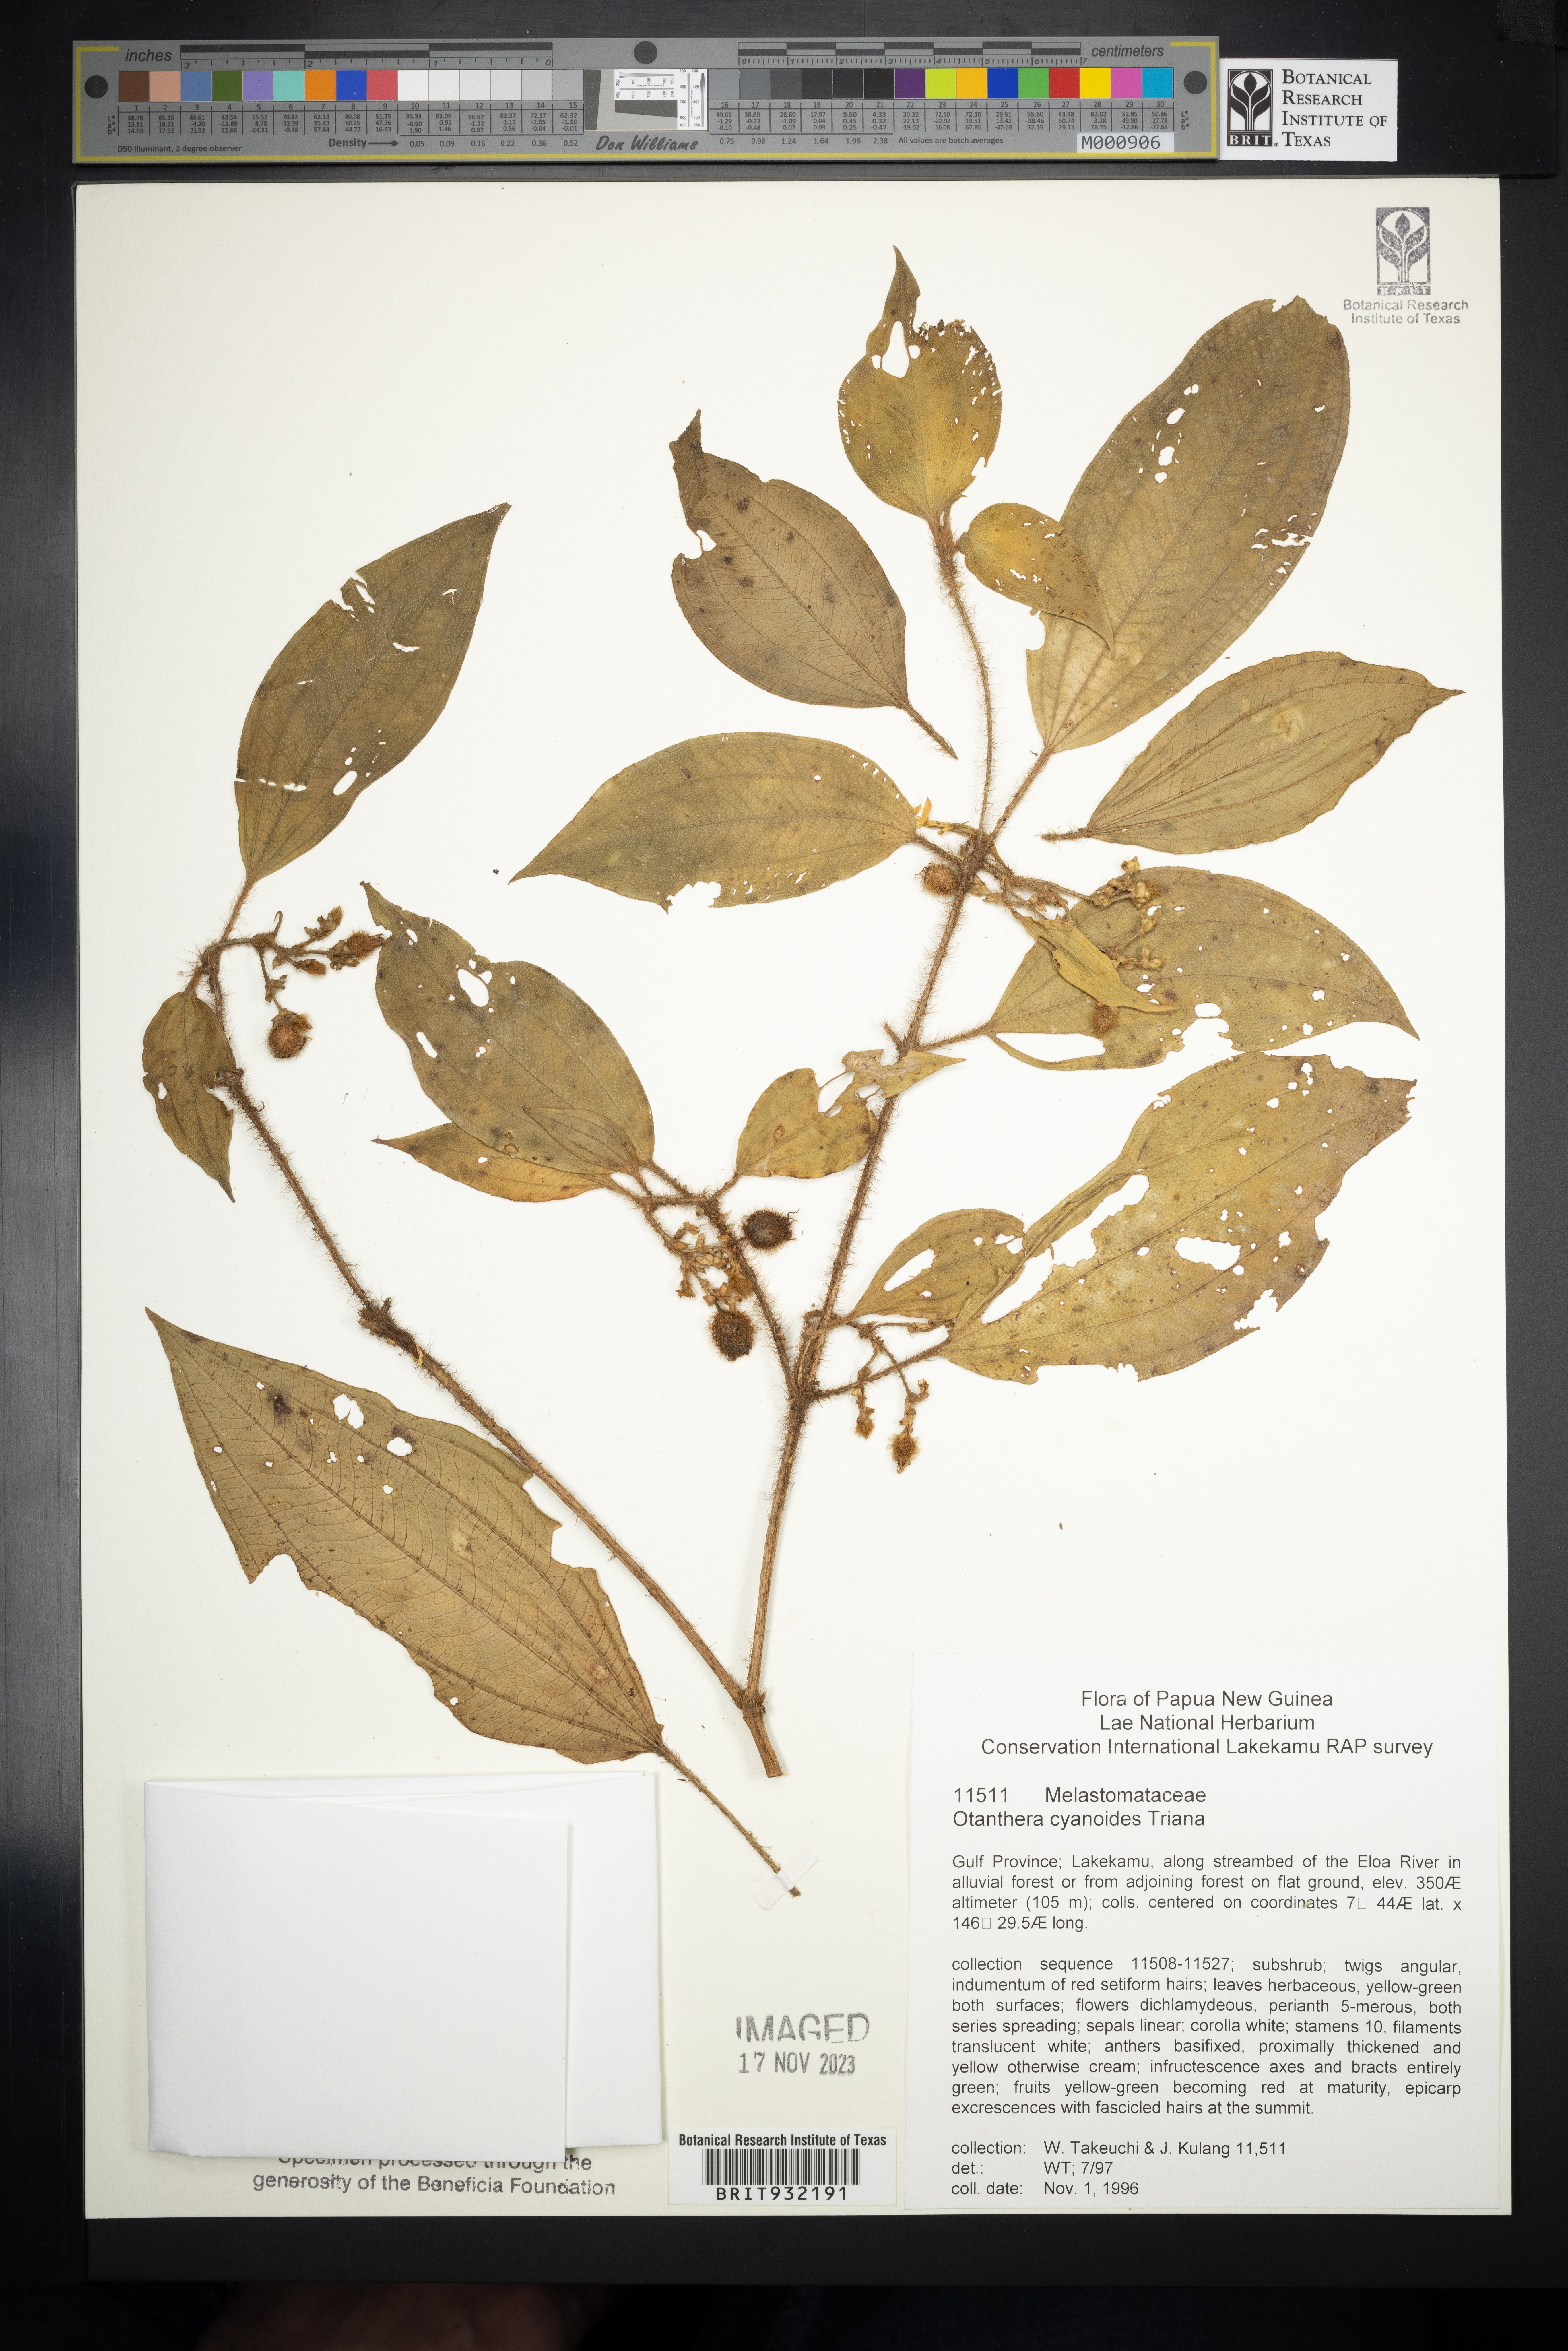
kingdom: Plantae
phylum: Tracheophyta
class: Magnoliopsida
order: Myrtales
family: Melastomataceae
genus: Melastoma
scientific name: Melastoma
